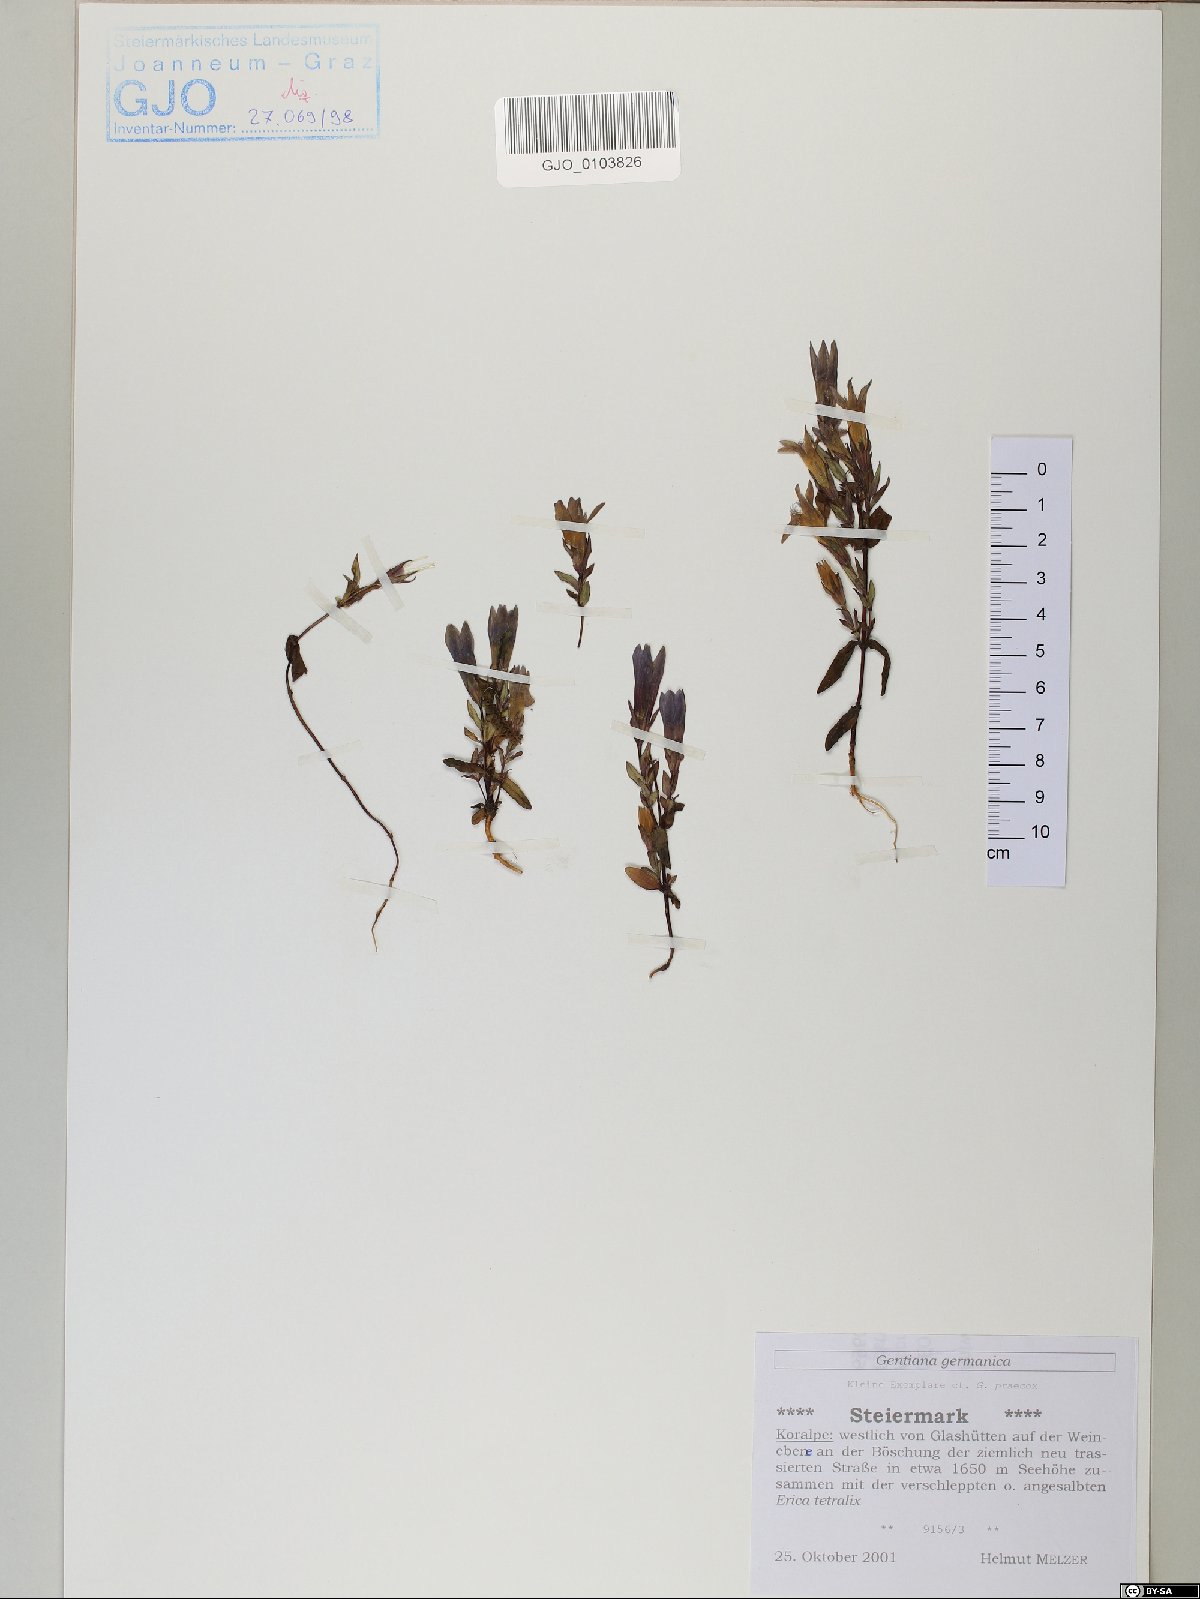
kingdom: Plantae
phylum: Tracheophyta
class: Magnoliopsida
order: Gentianales
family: Gentianaceae
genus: Gentianella
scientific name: Gentianella germanica
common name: Chiltern-gentian
